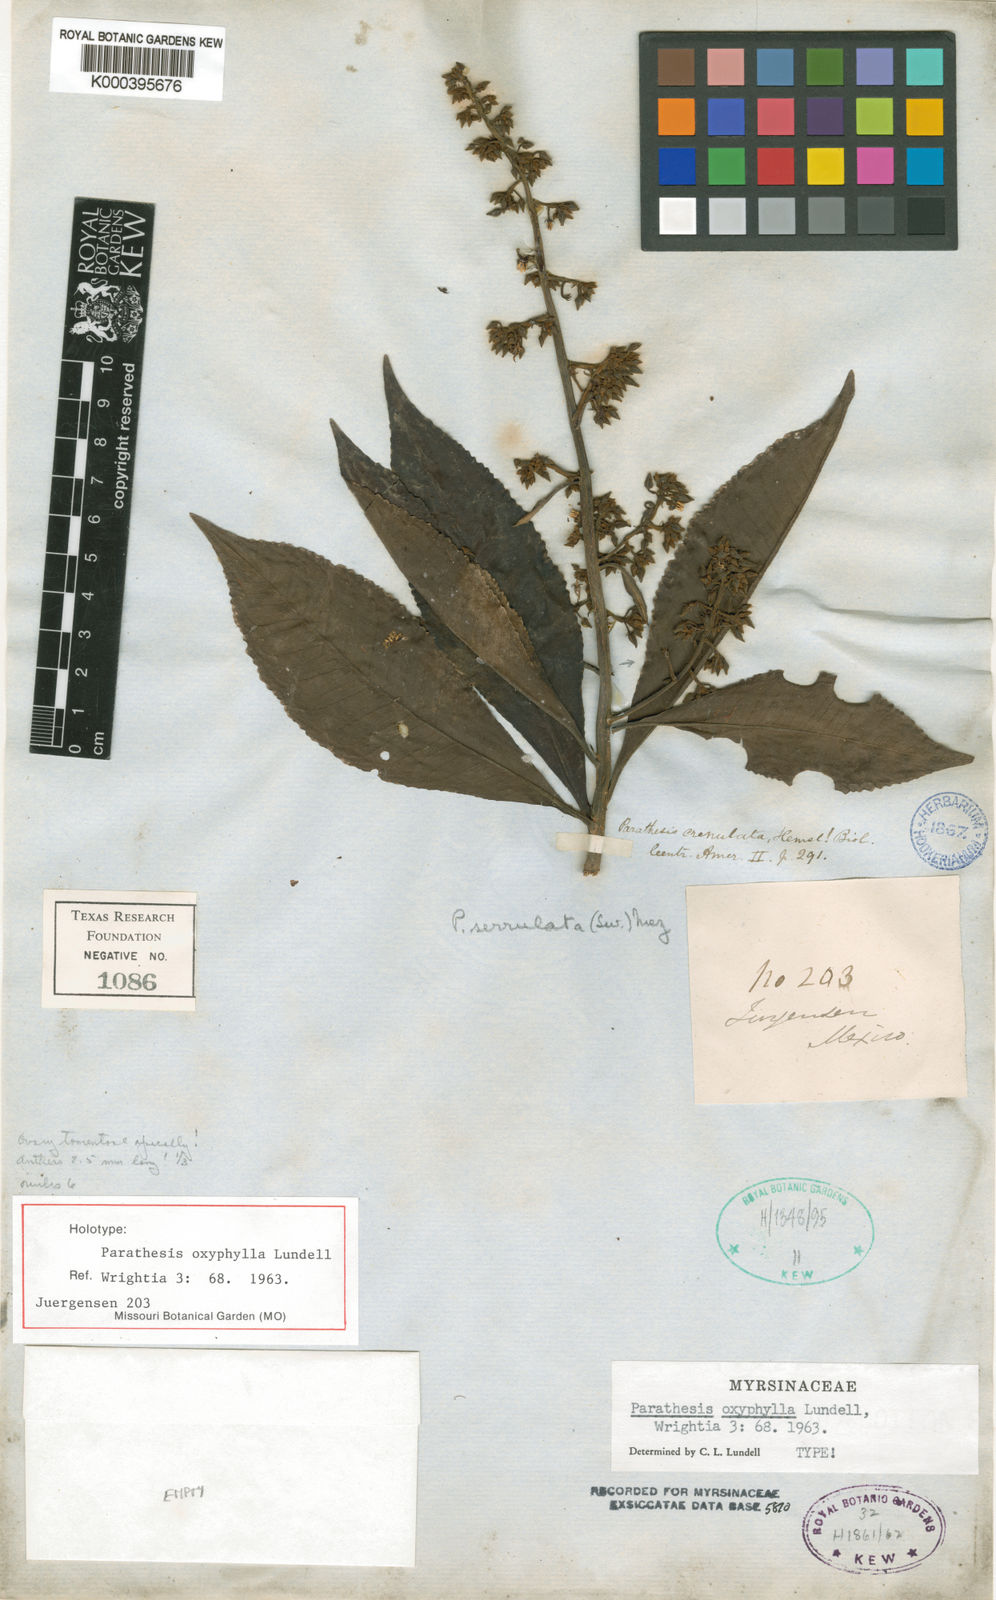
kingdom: Plantae
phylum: Tracheophyta
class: Magnoliopsida
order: Ericales
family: Primulaceae
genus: Parathesis
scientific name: Parathesis donnell-smithii
